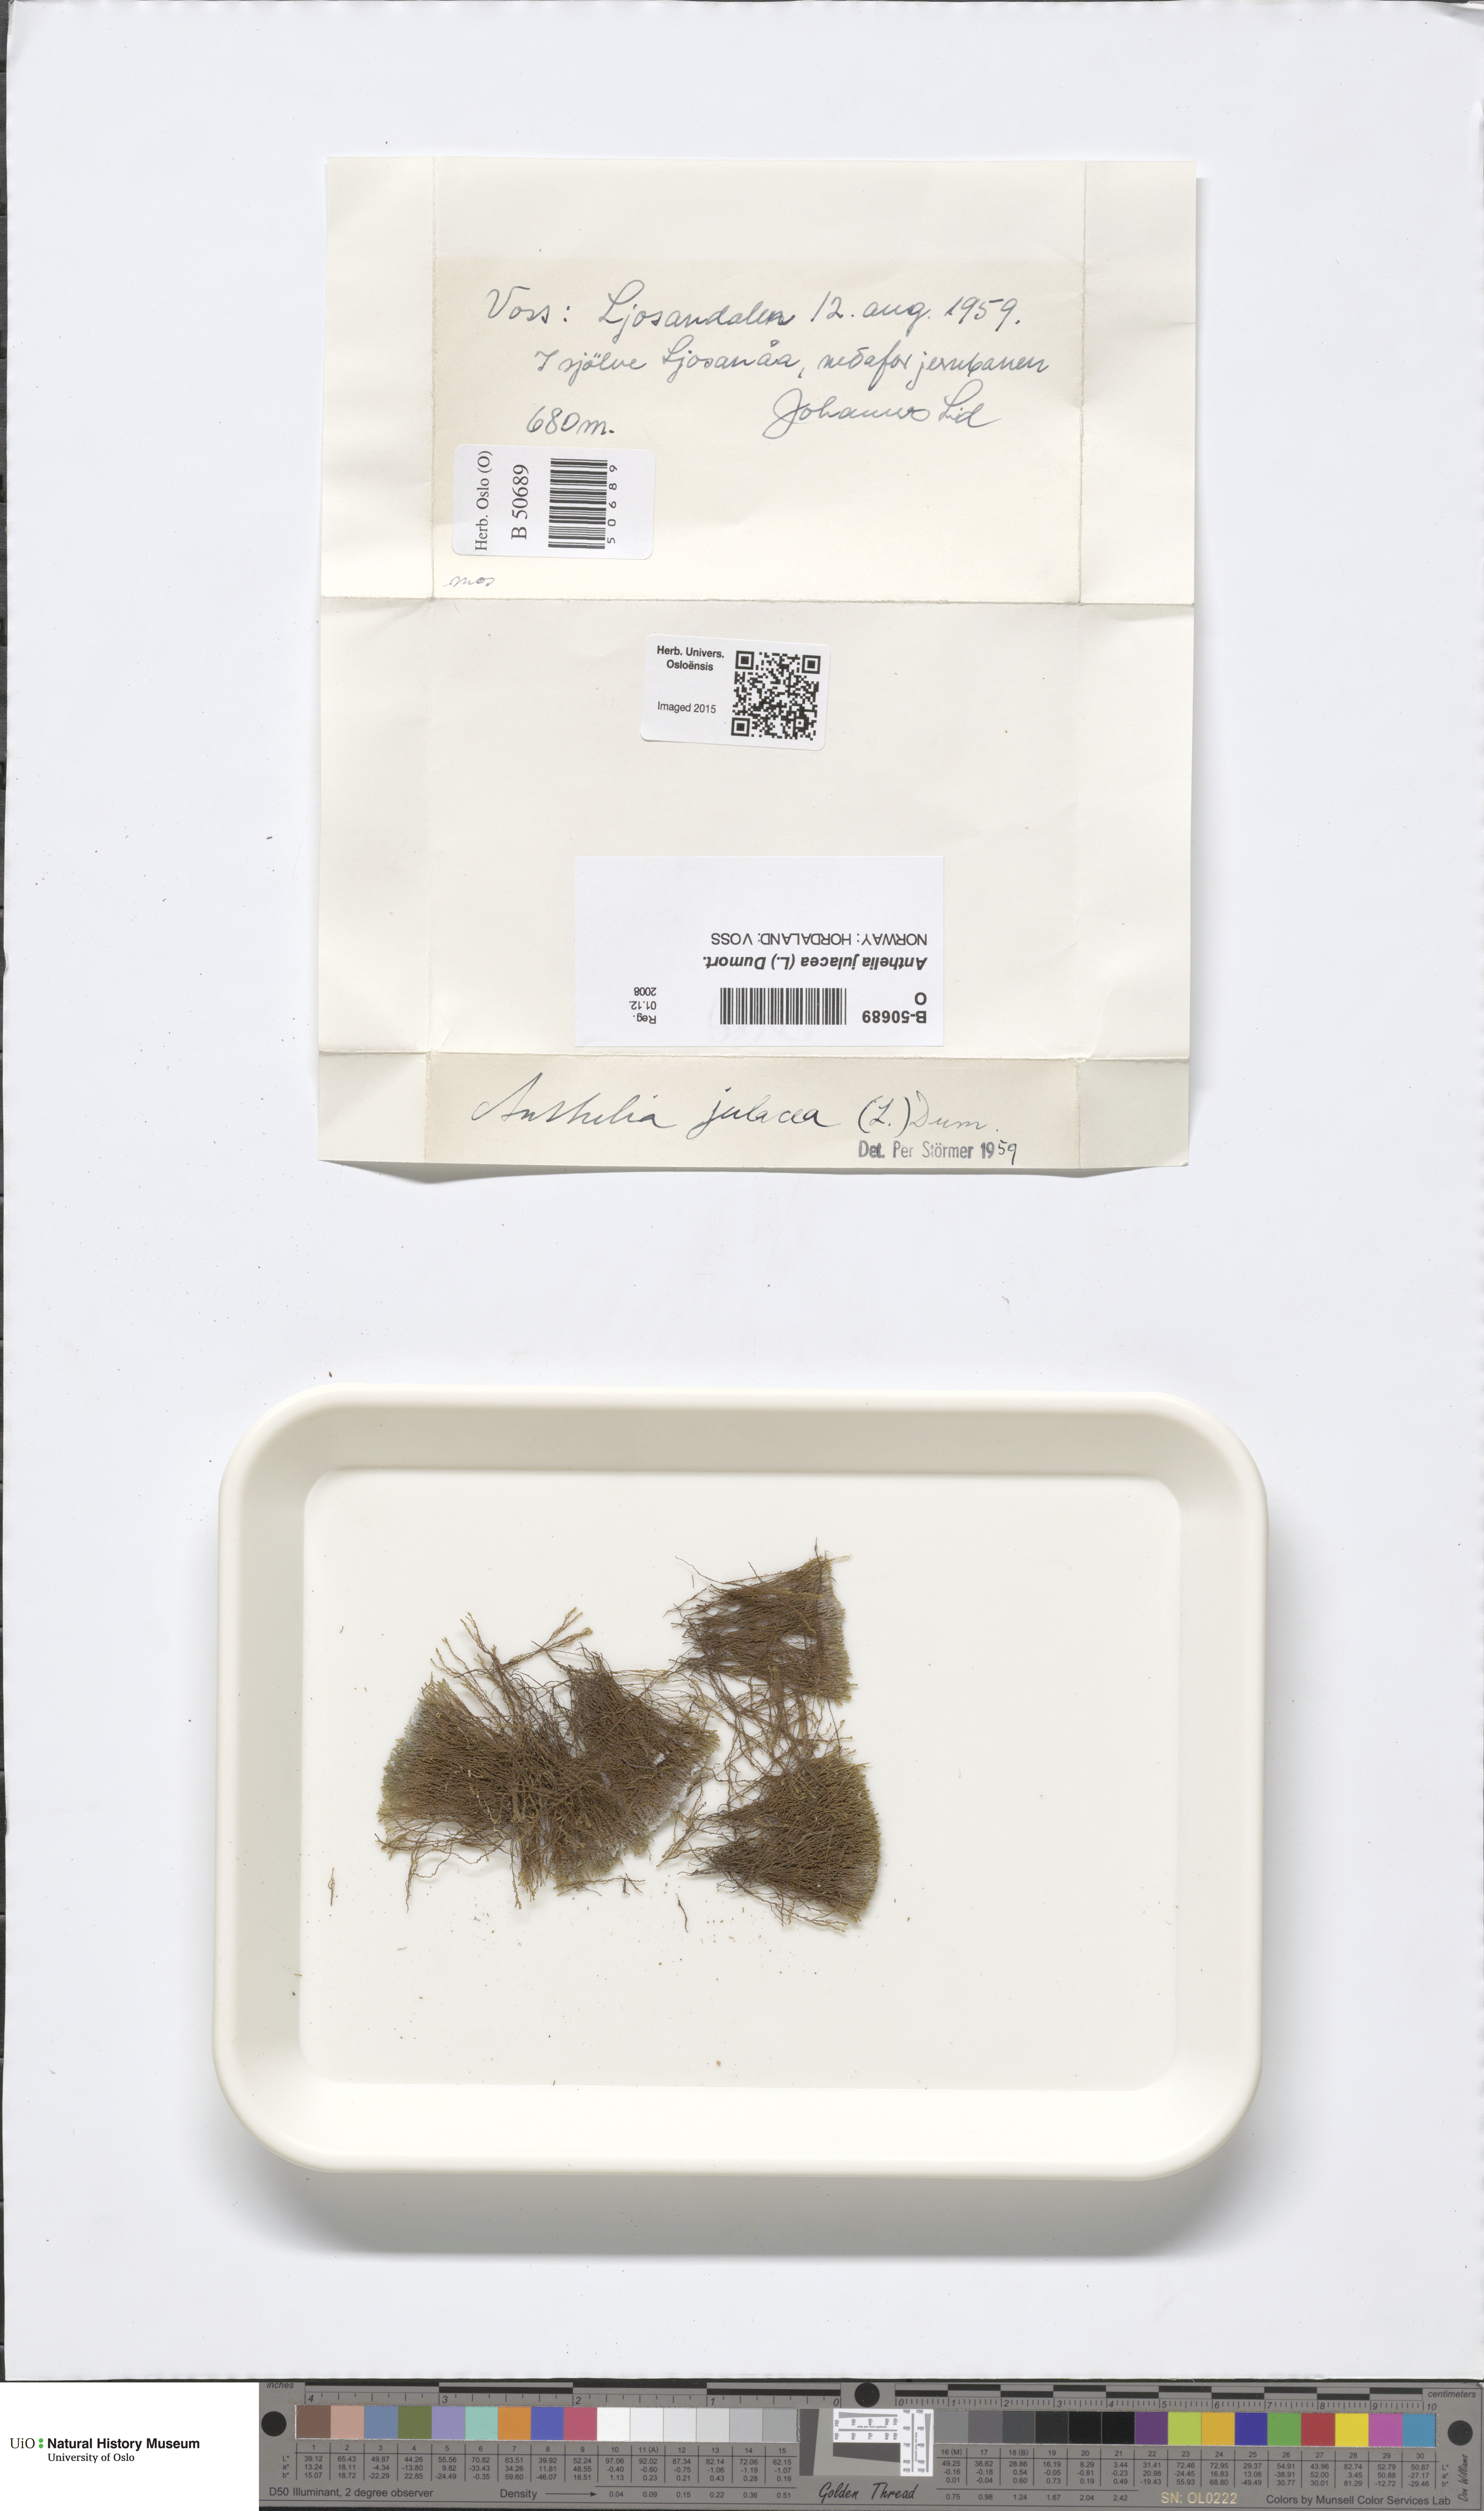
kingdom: Plantae
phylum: Marchantiophyta
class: Jungermanniopsida
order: Jungermanniales
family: Antheliaceae
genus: Anthelia
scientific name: Anthelia julacea
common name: Alpine silverwort
